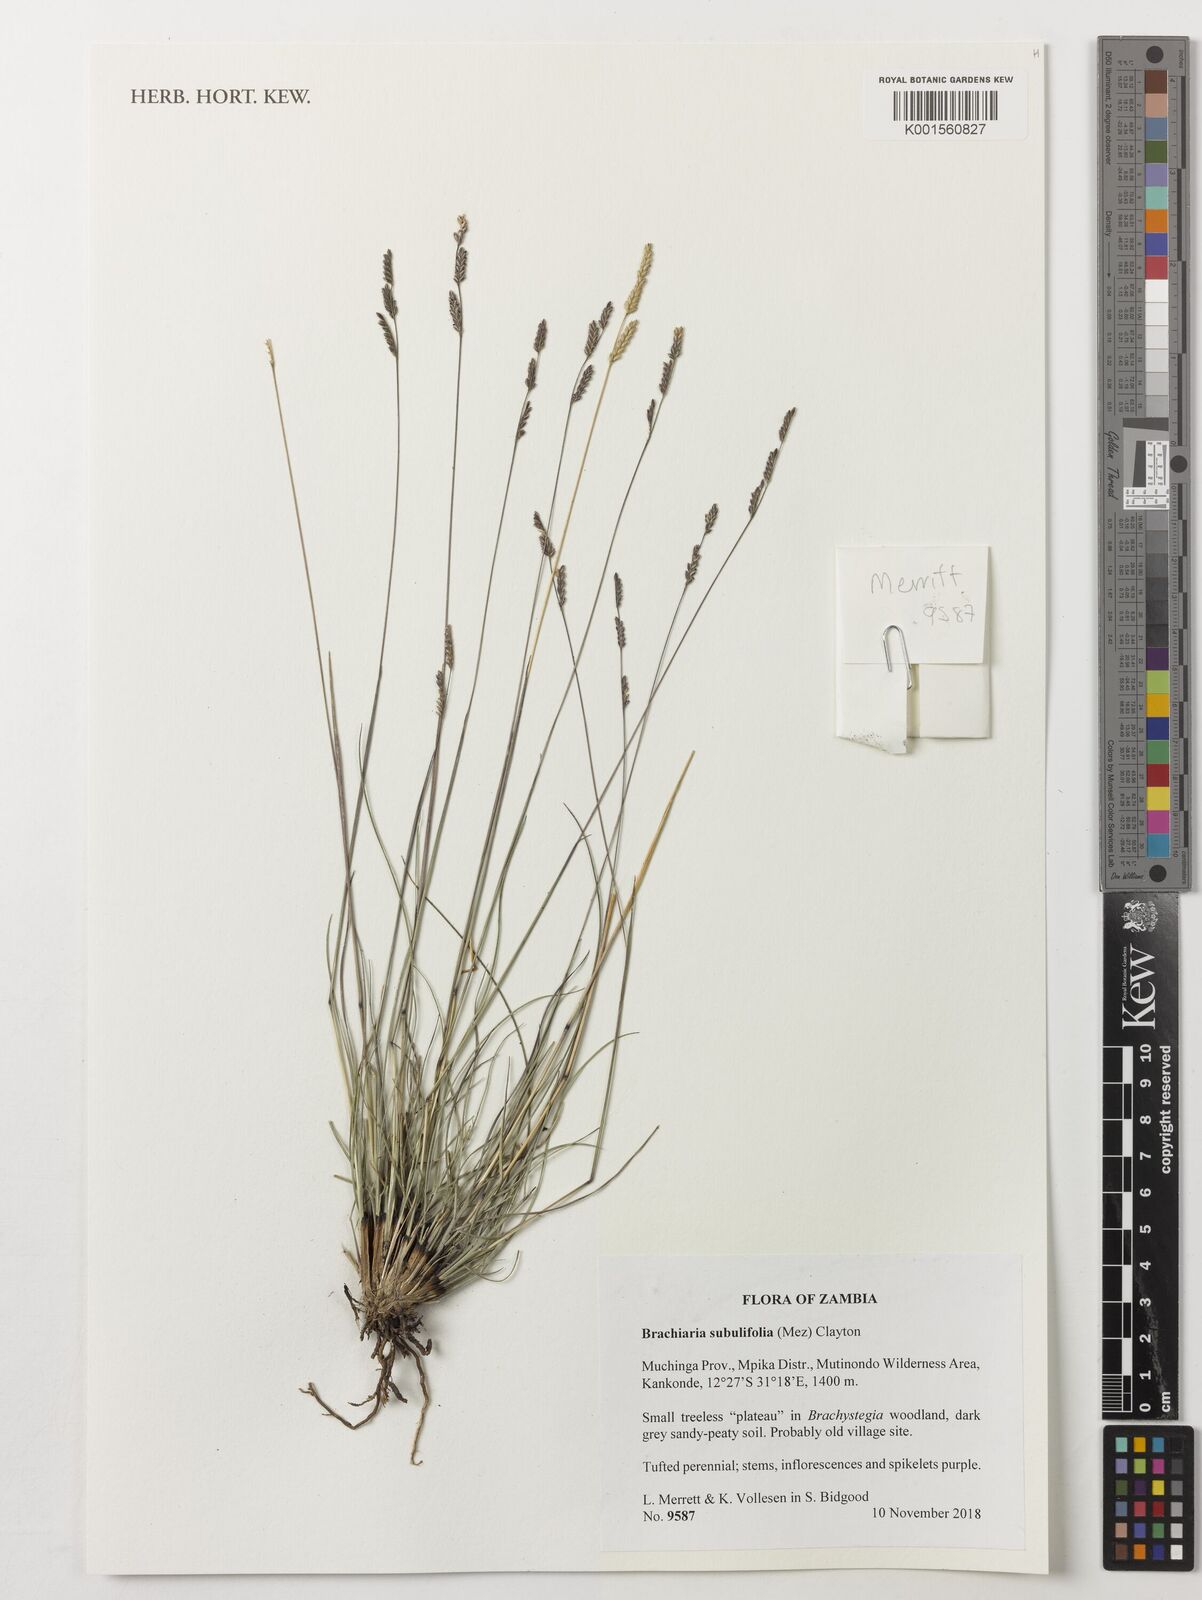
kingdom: Plantae
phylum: Tracheophyta
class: Liliopsida
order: Poales
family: Poaceae
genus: Urochloa
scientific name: Urochloa subulifolia
